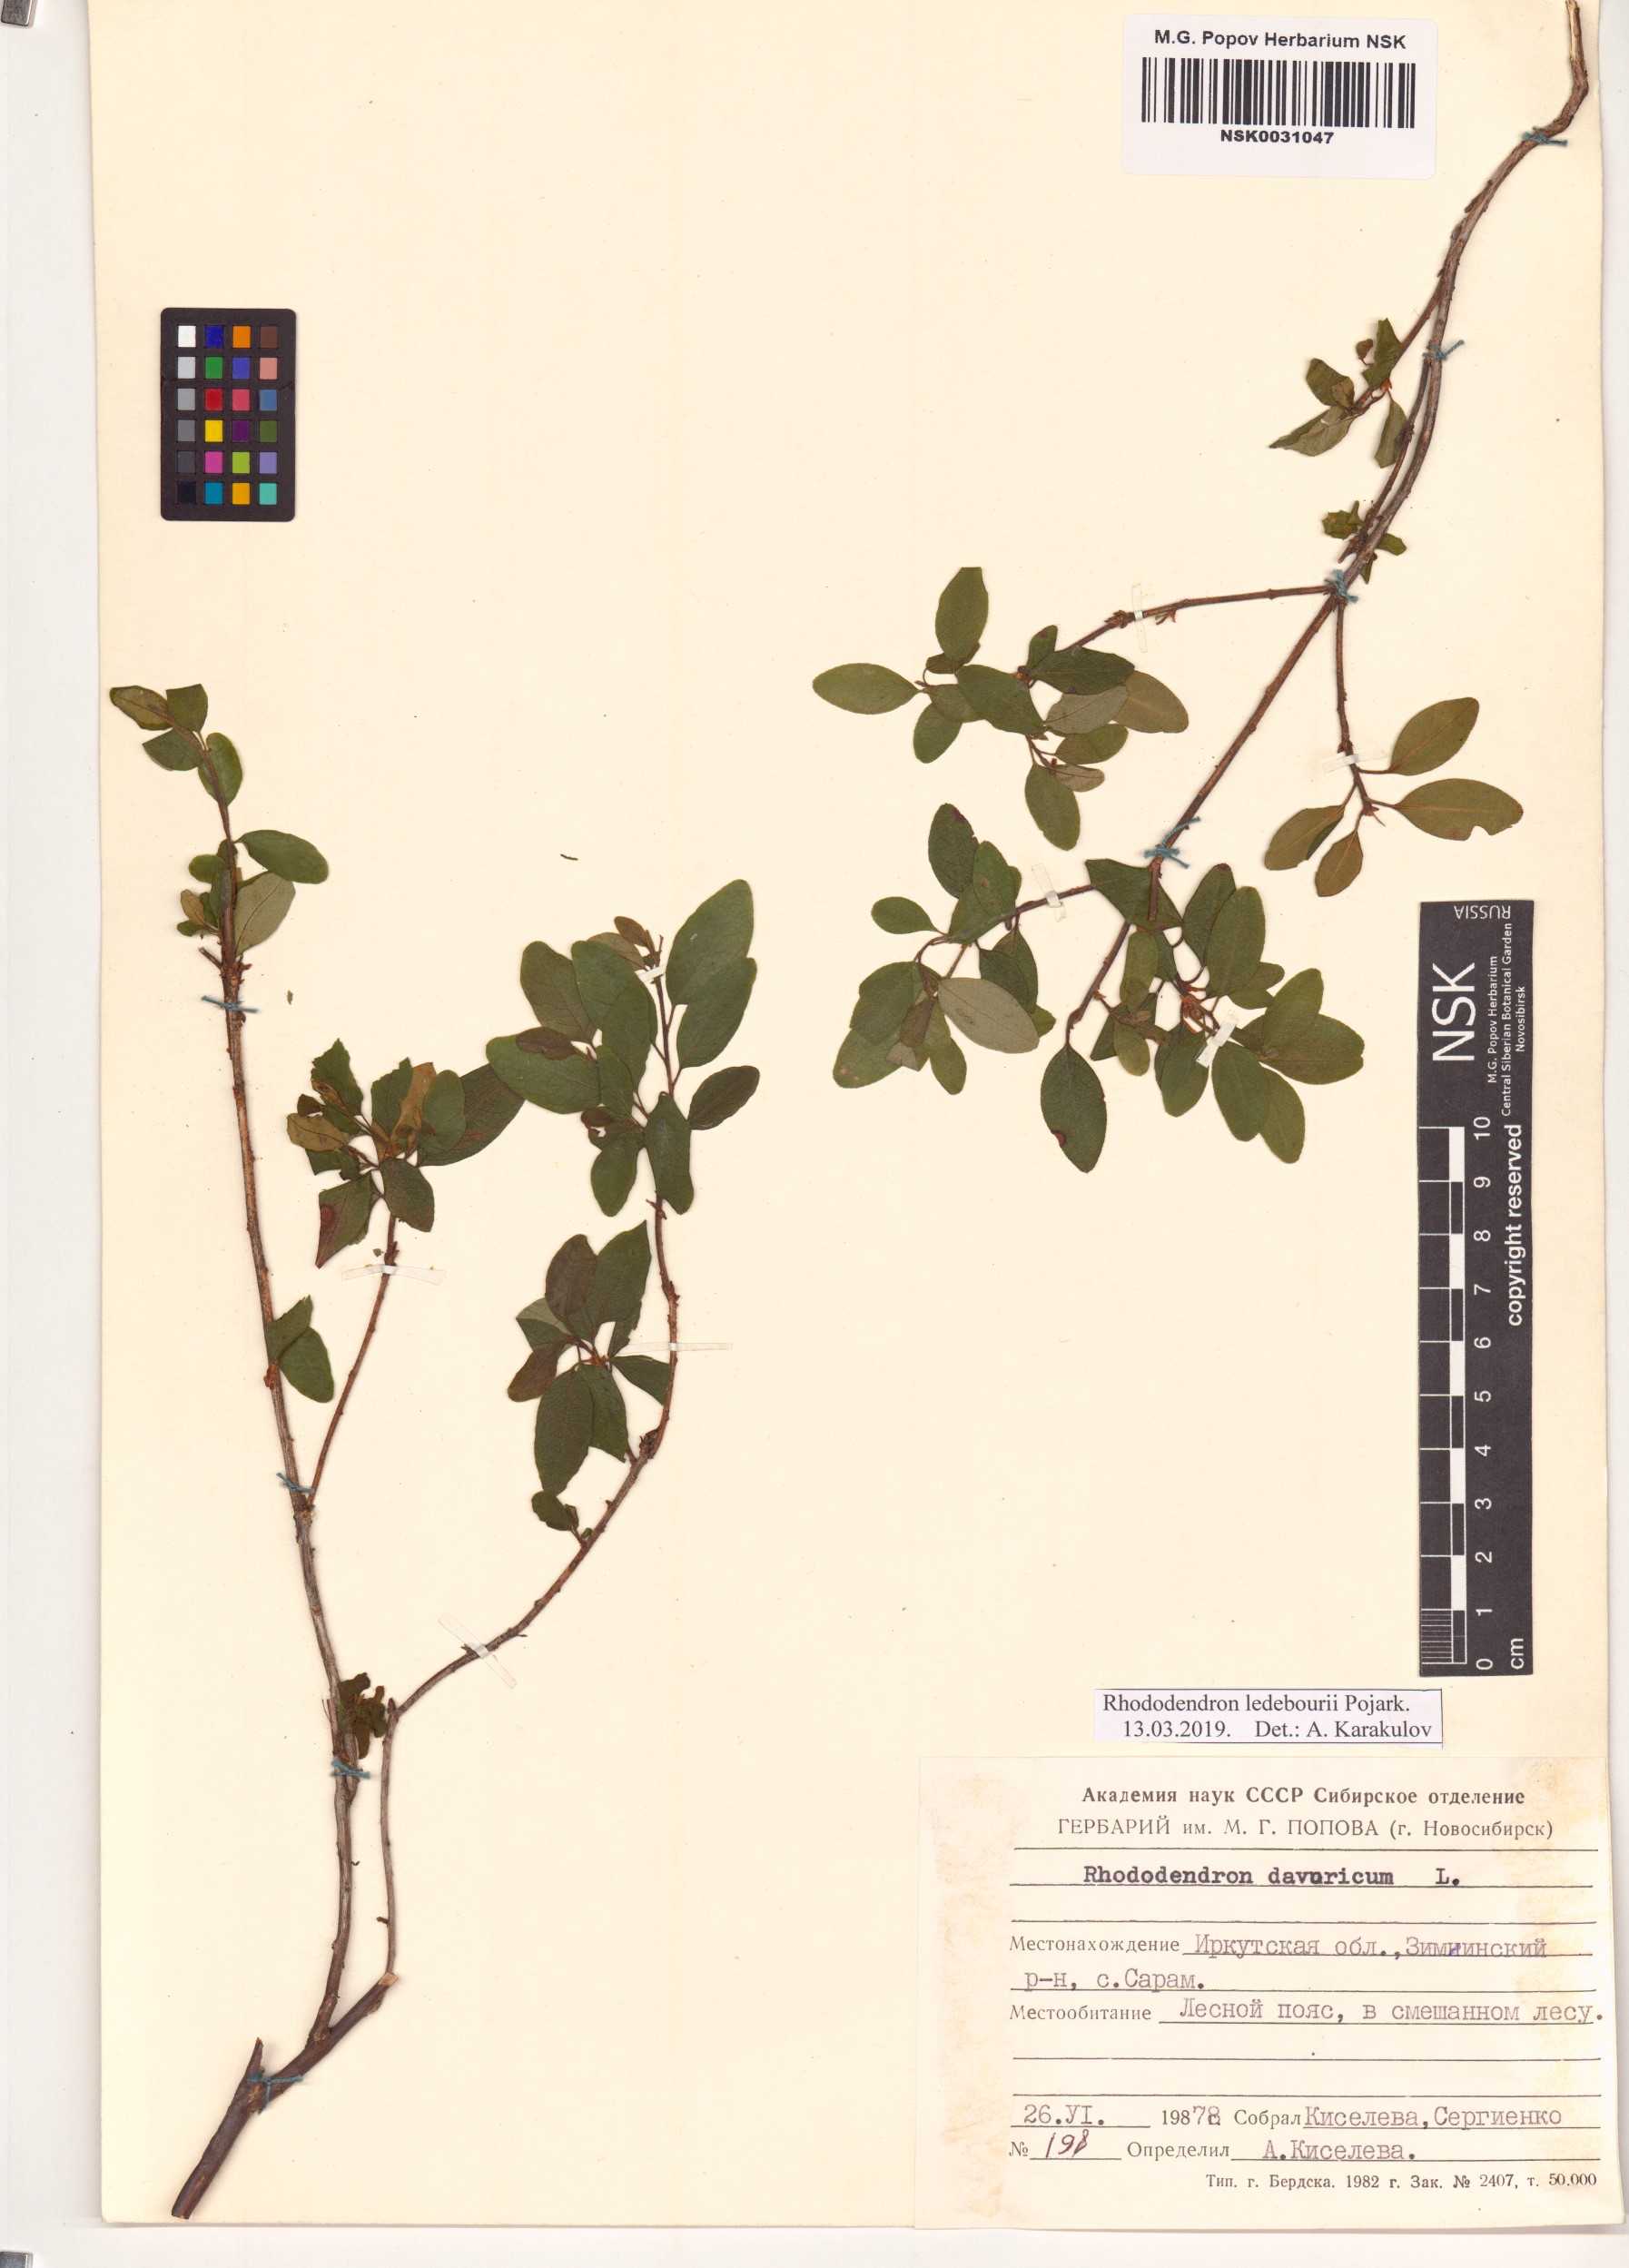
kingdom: Plantae
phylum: Tracheophyta
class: Magnoliopsida
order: Ericales
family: Ericaceae
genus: Rhododendron
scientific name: Rhododendron dauricum
